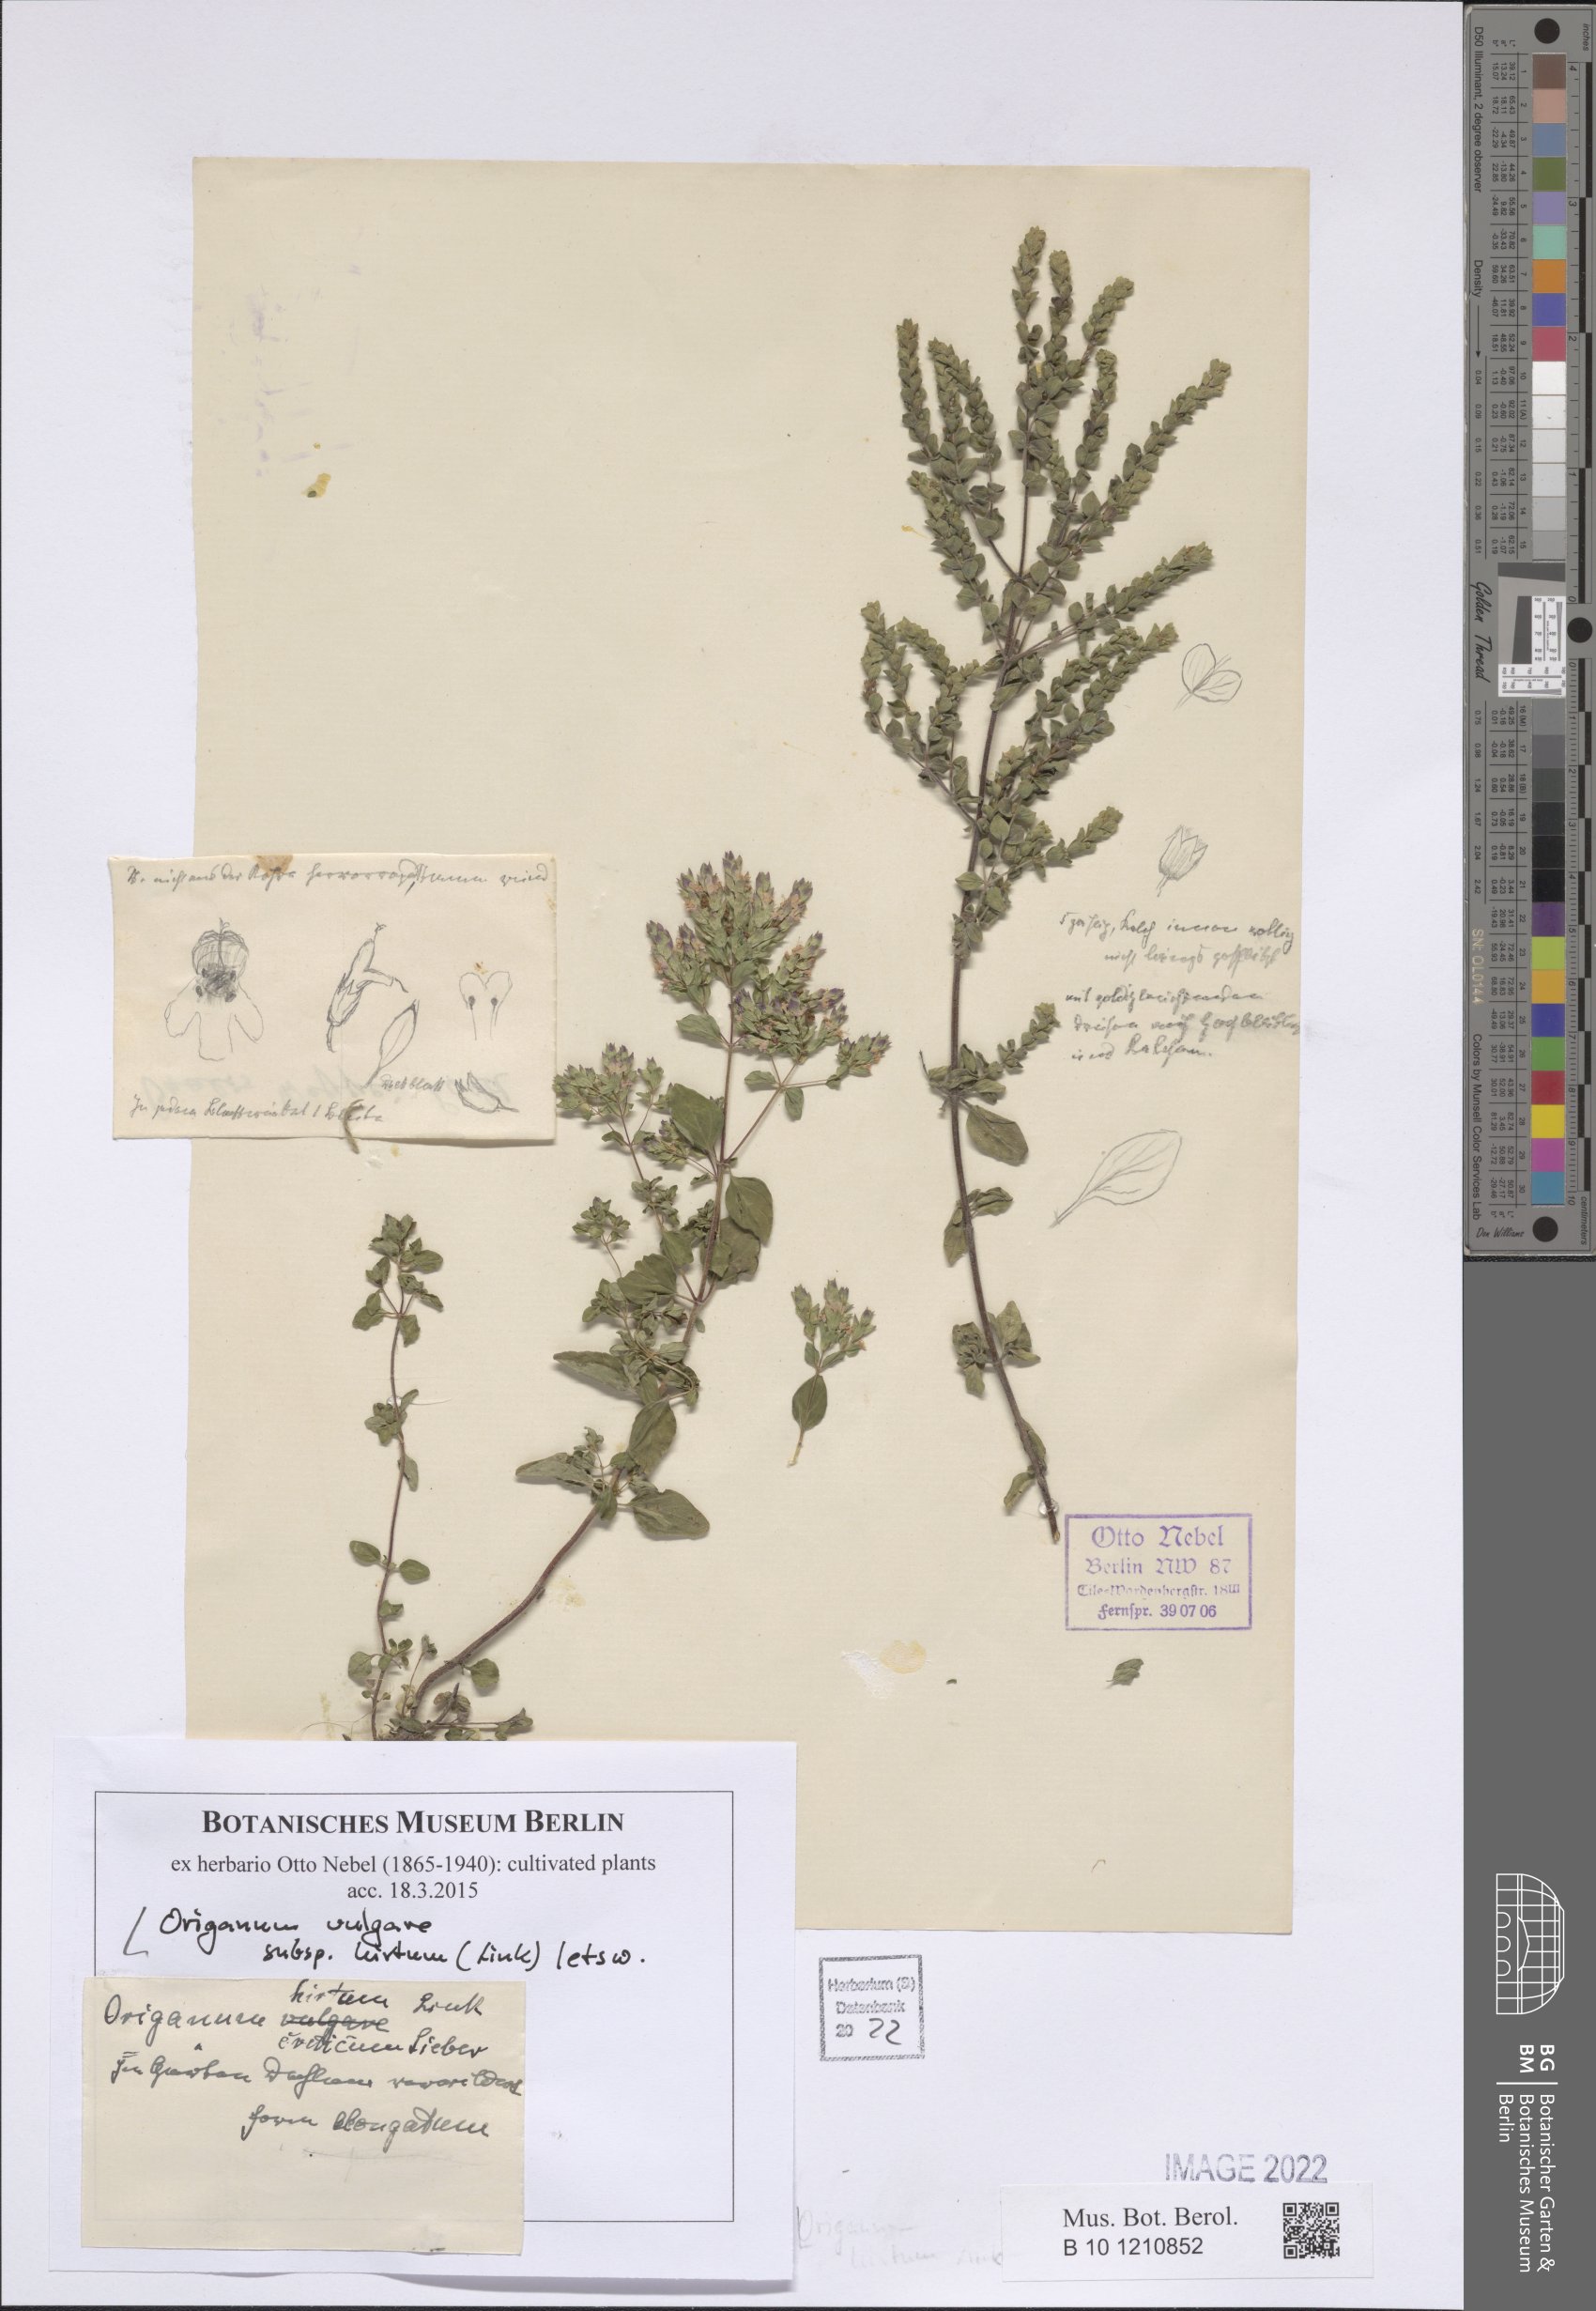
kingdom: Plantae
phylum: Tracheophyta
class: Magnoliopsida
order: Lamiales
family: Lamiaceae
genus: Origanum
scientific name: Origanum vulgare
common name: Wild marjoram
